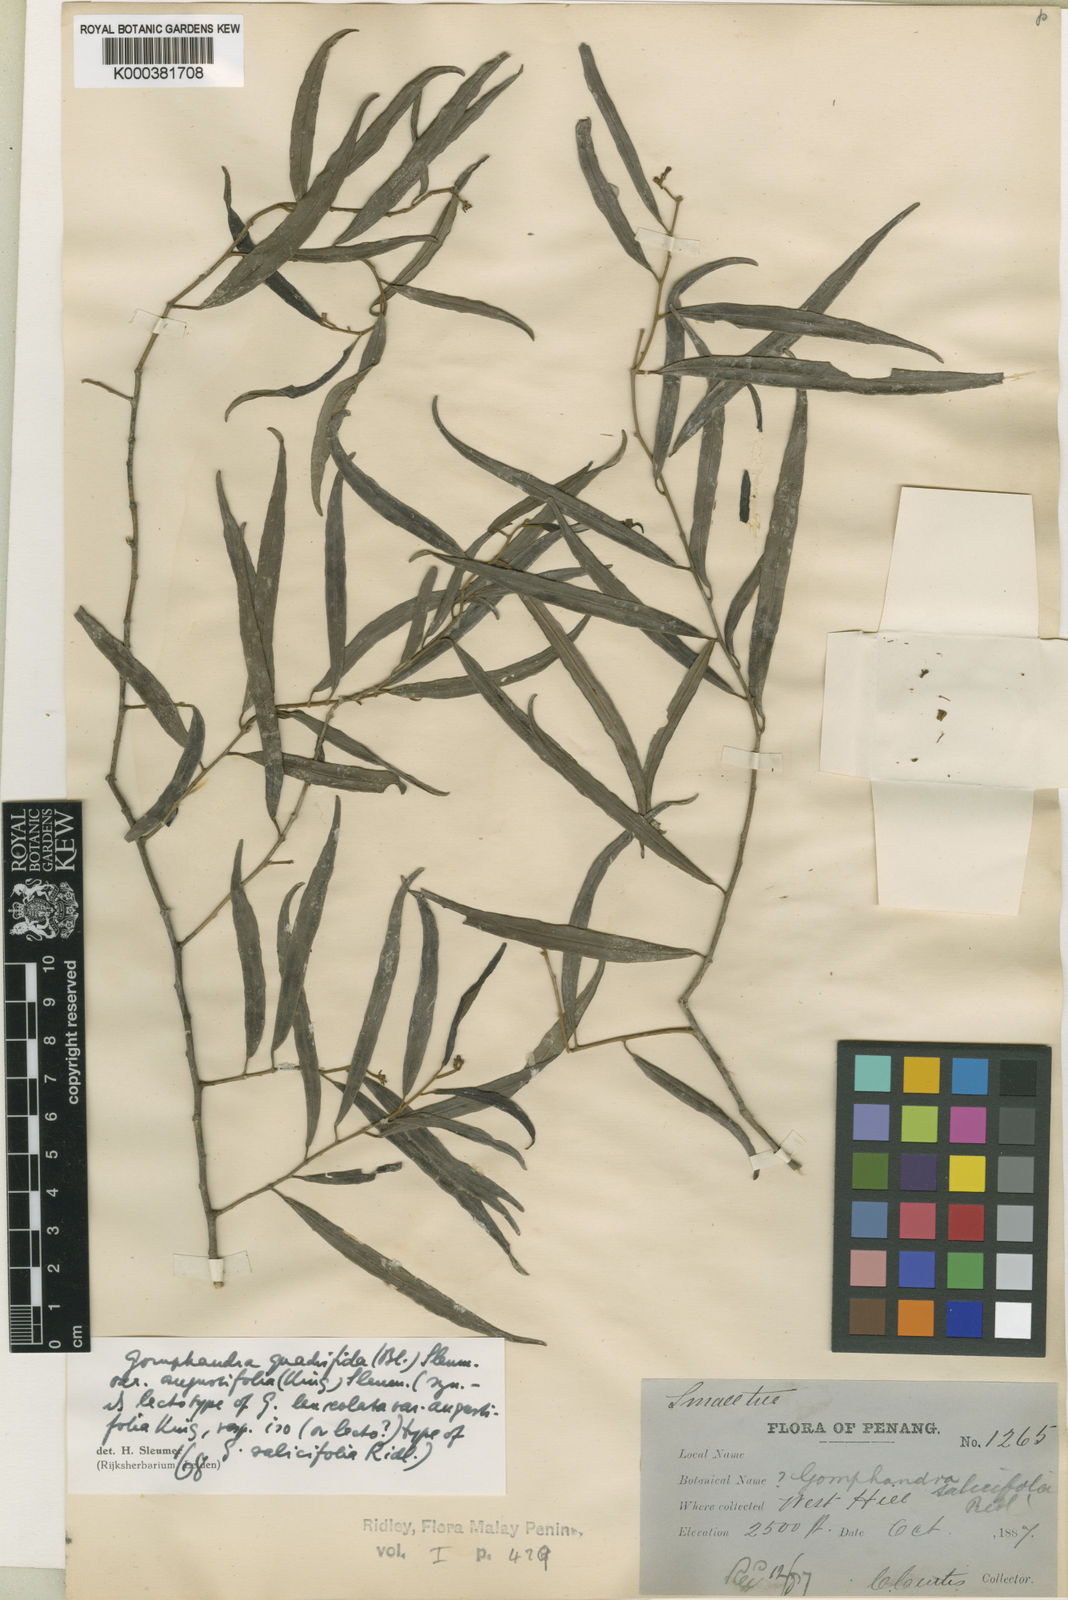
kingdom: Plantae
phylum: Tracheophyta
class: Magnoliopsida
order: Cardiopteridales
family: Stemonuraceae
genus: Gomphandra
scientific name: Gomphandra quadrifida
